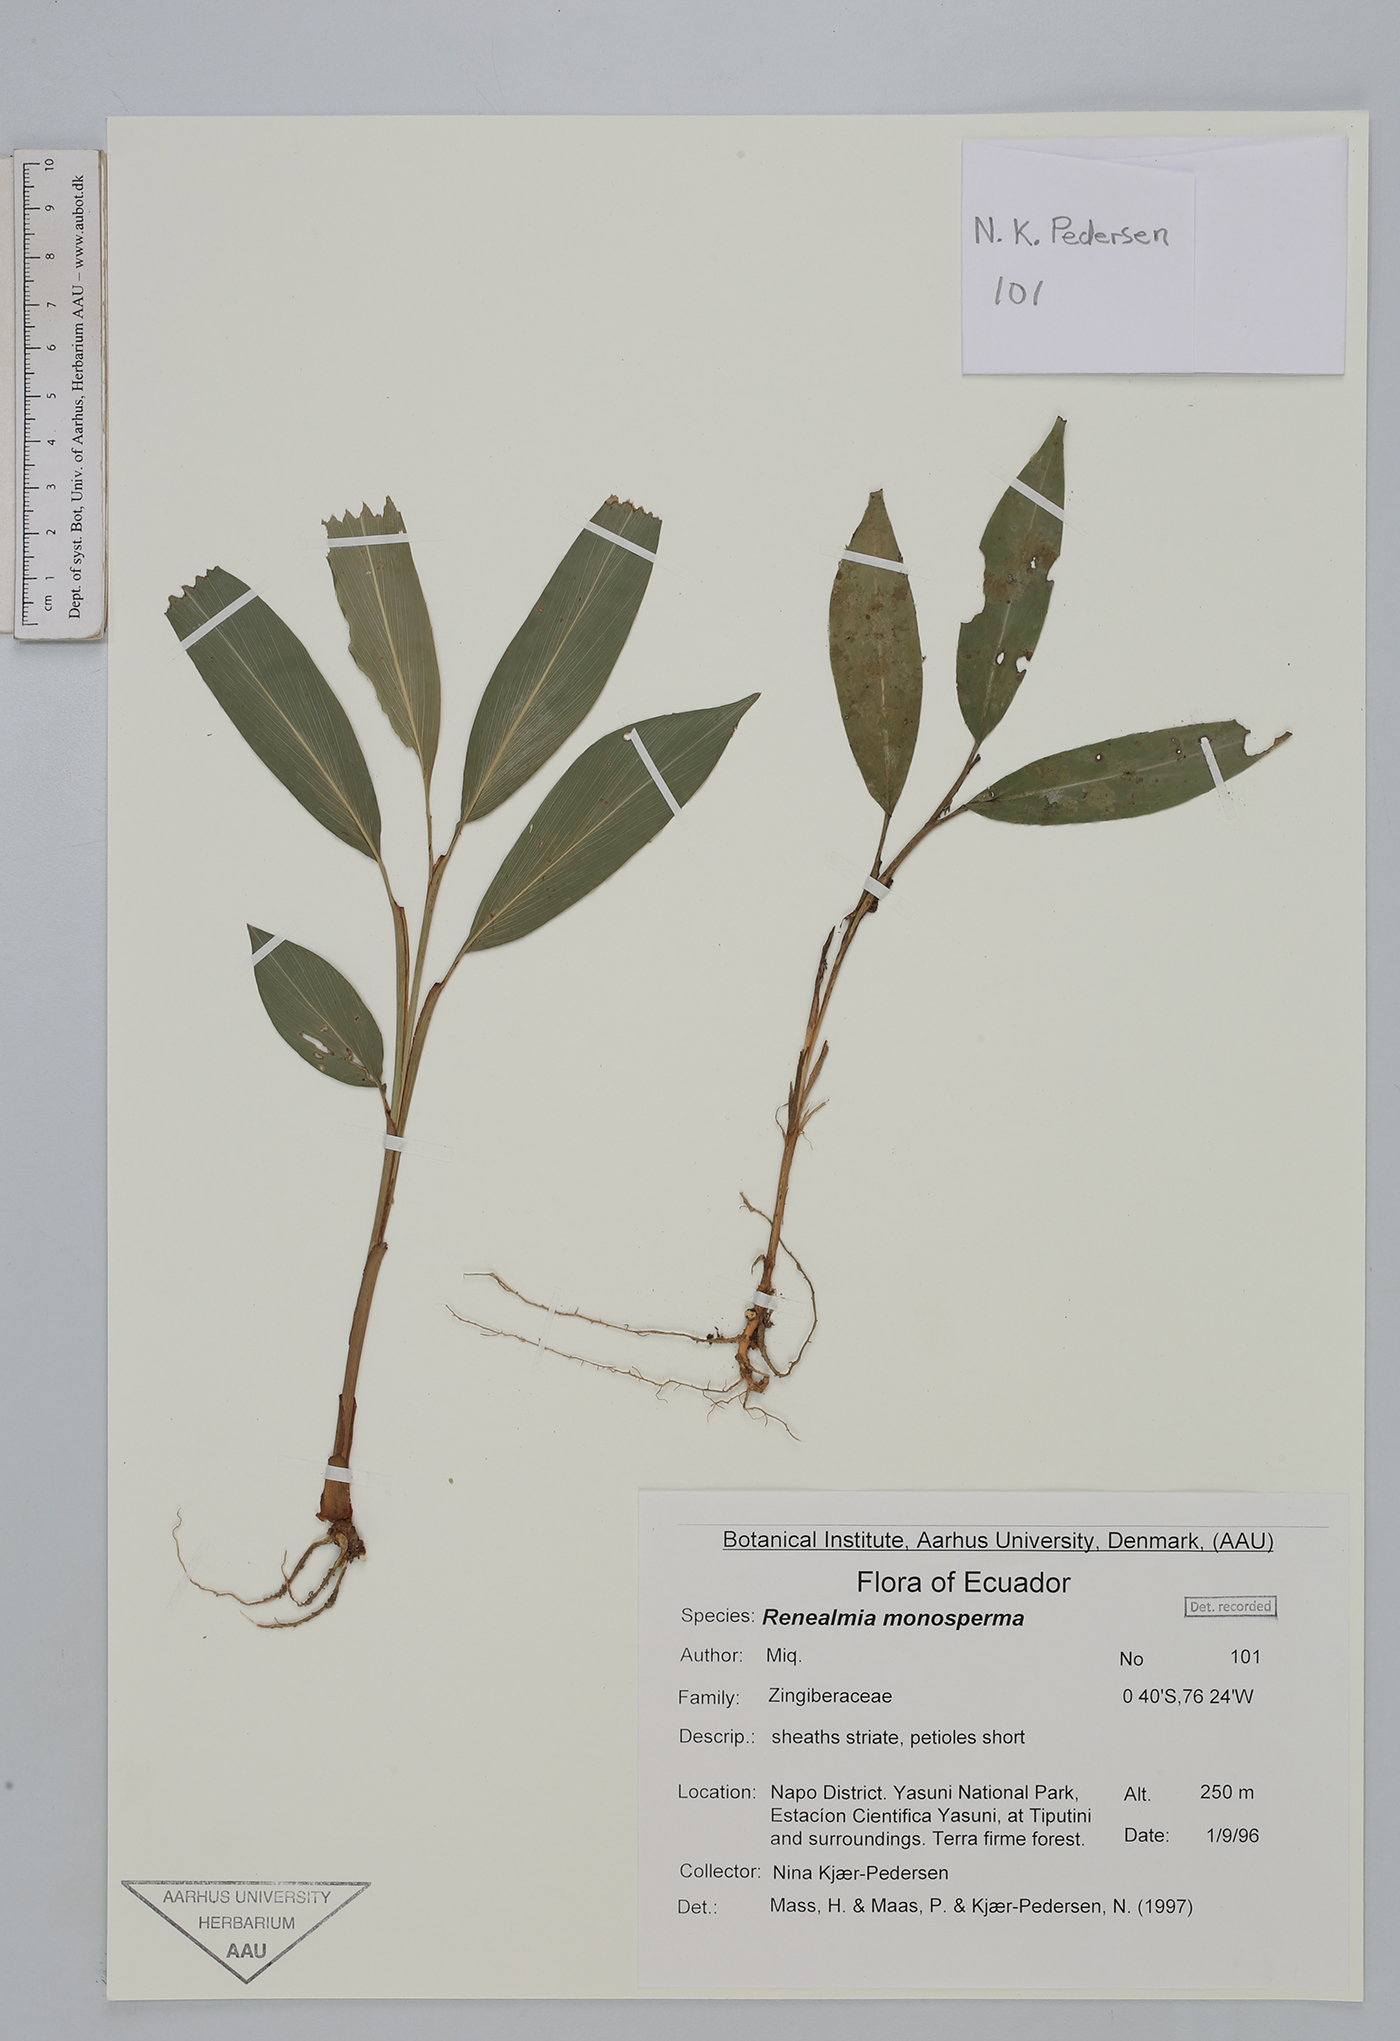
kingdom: Plantae
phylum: Tracheophyta
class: Liliopsida
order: Zingiberales
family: Zingiberaceae
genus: Renealmia
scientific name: Renealmia monosperma
